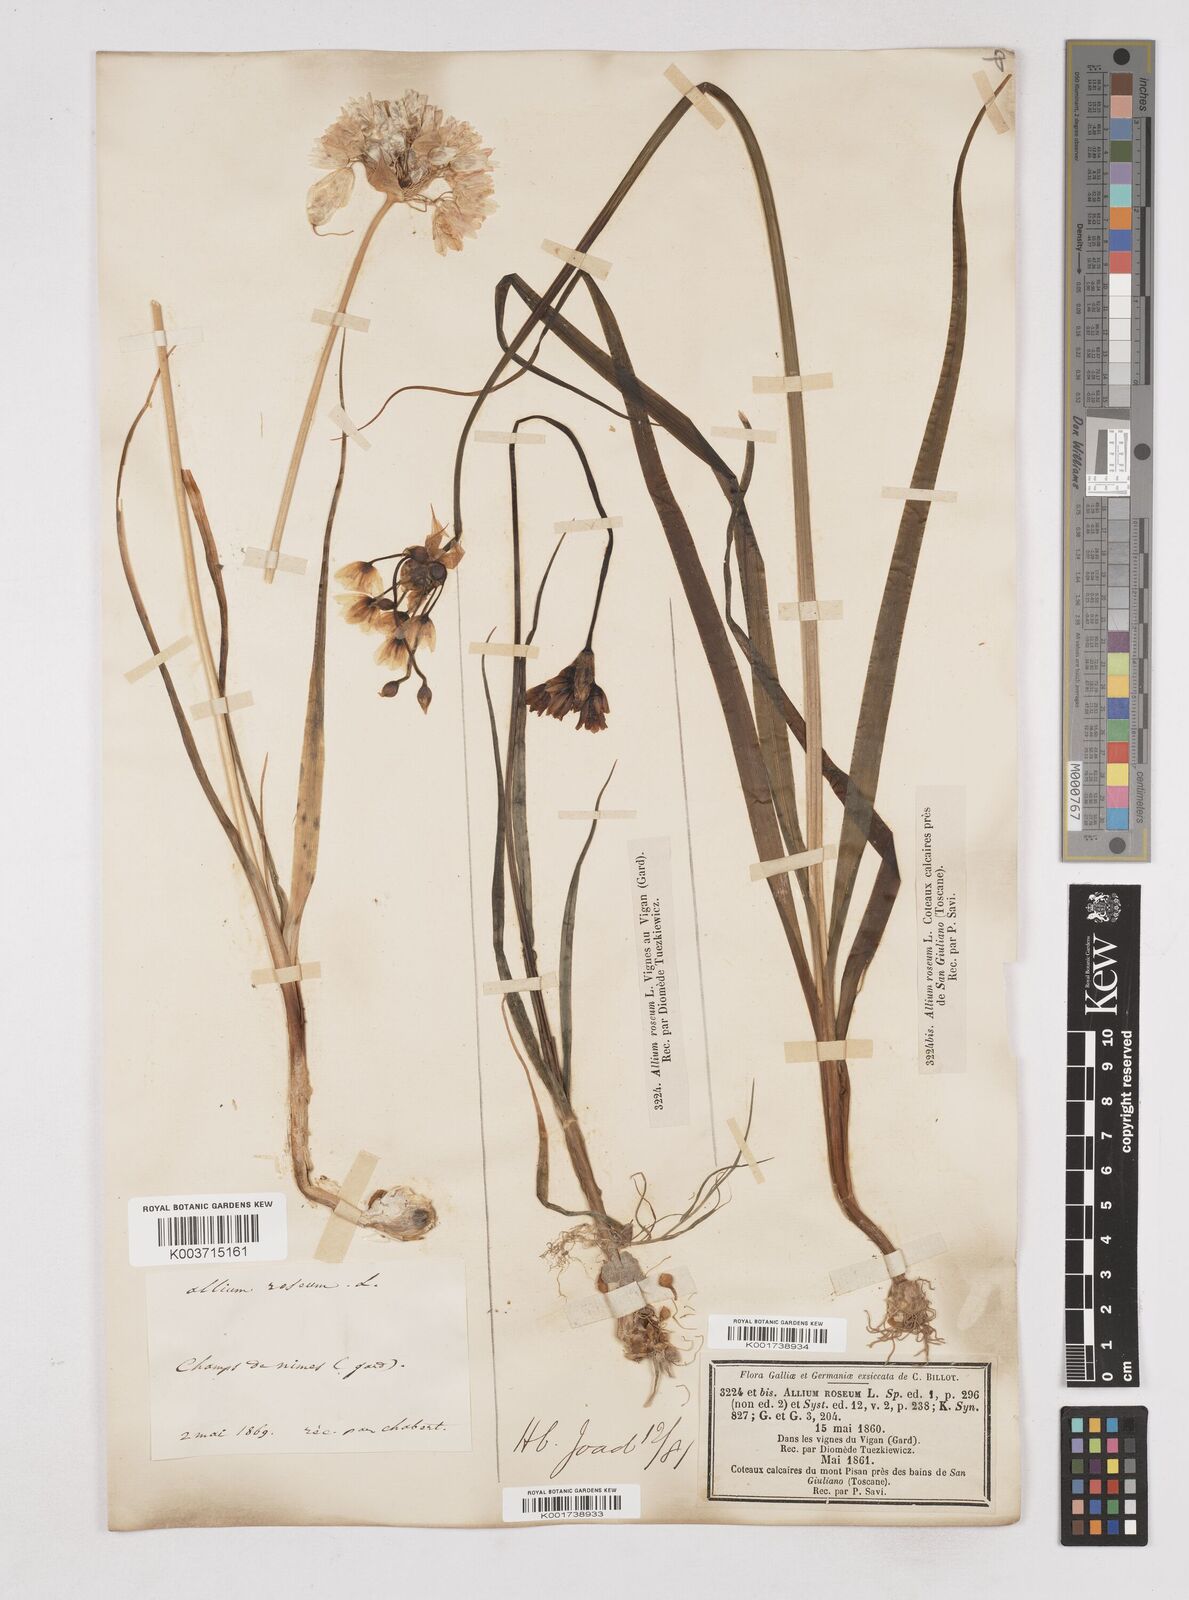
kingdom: Plantae
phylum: Tracheophyta
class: Liliopsida
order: Asparagales
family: Amaryllidaceae
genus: Allium
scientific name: Allium roseum
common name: Rosy garlic
